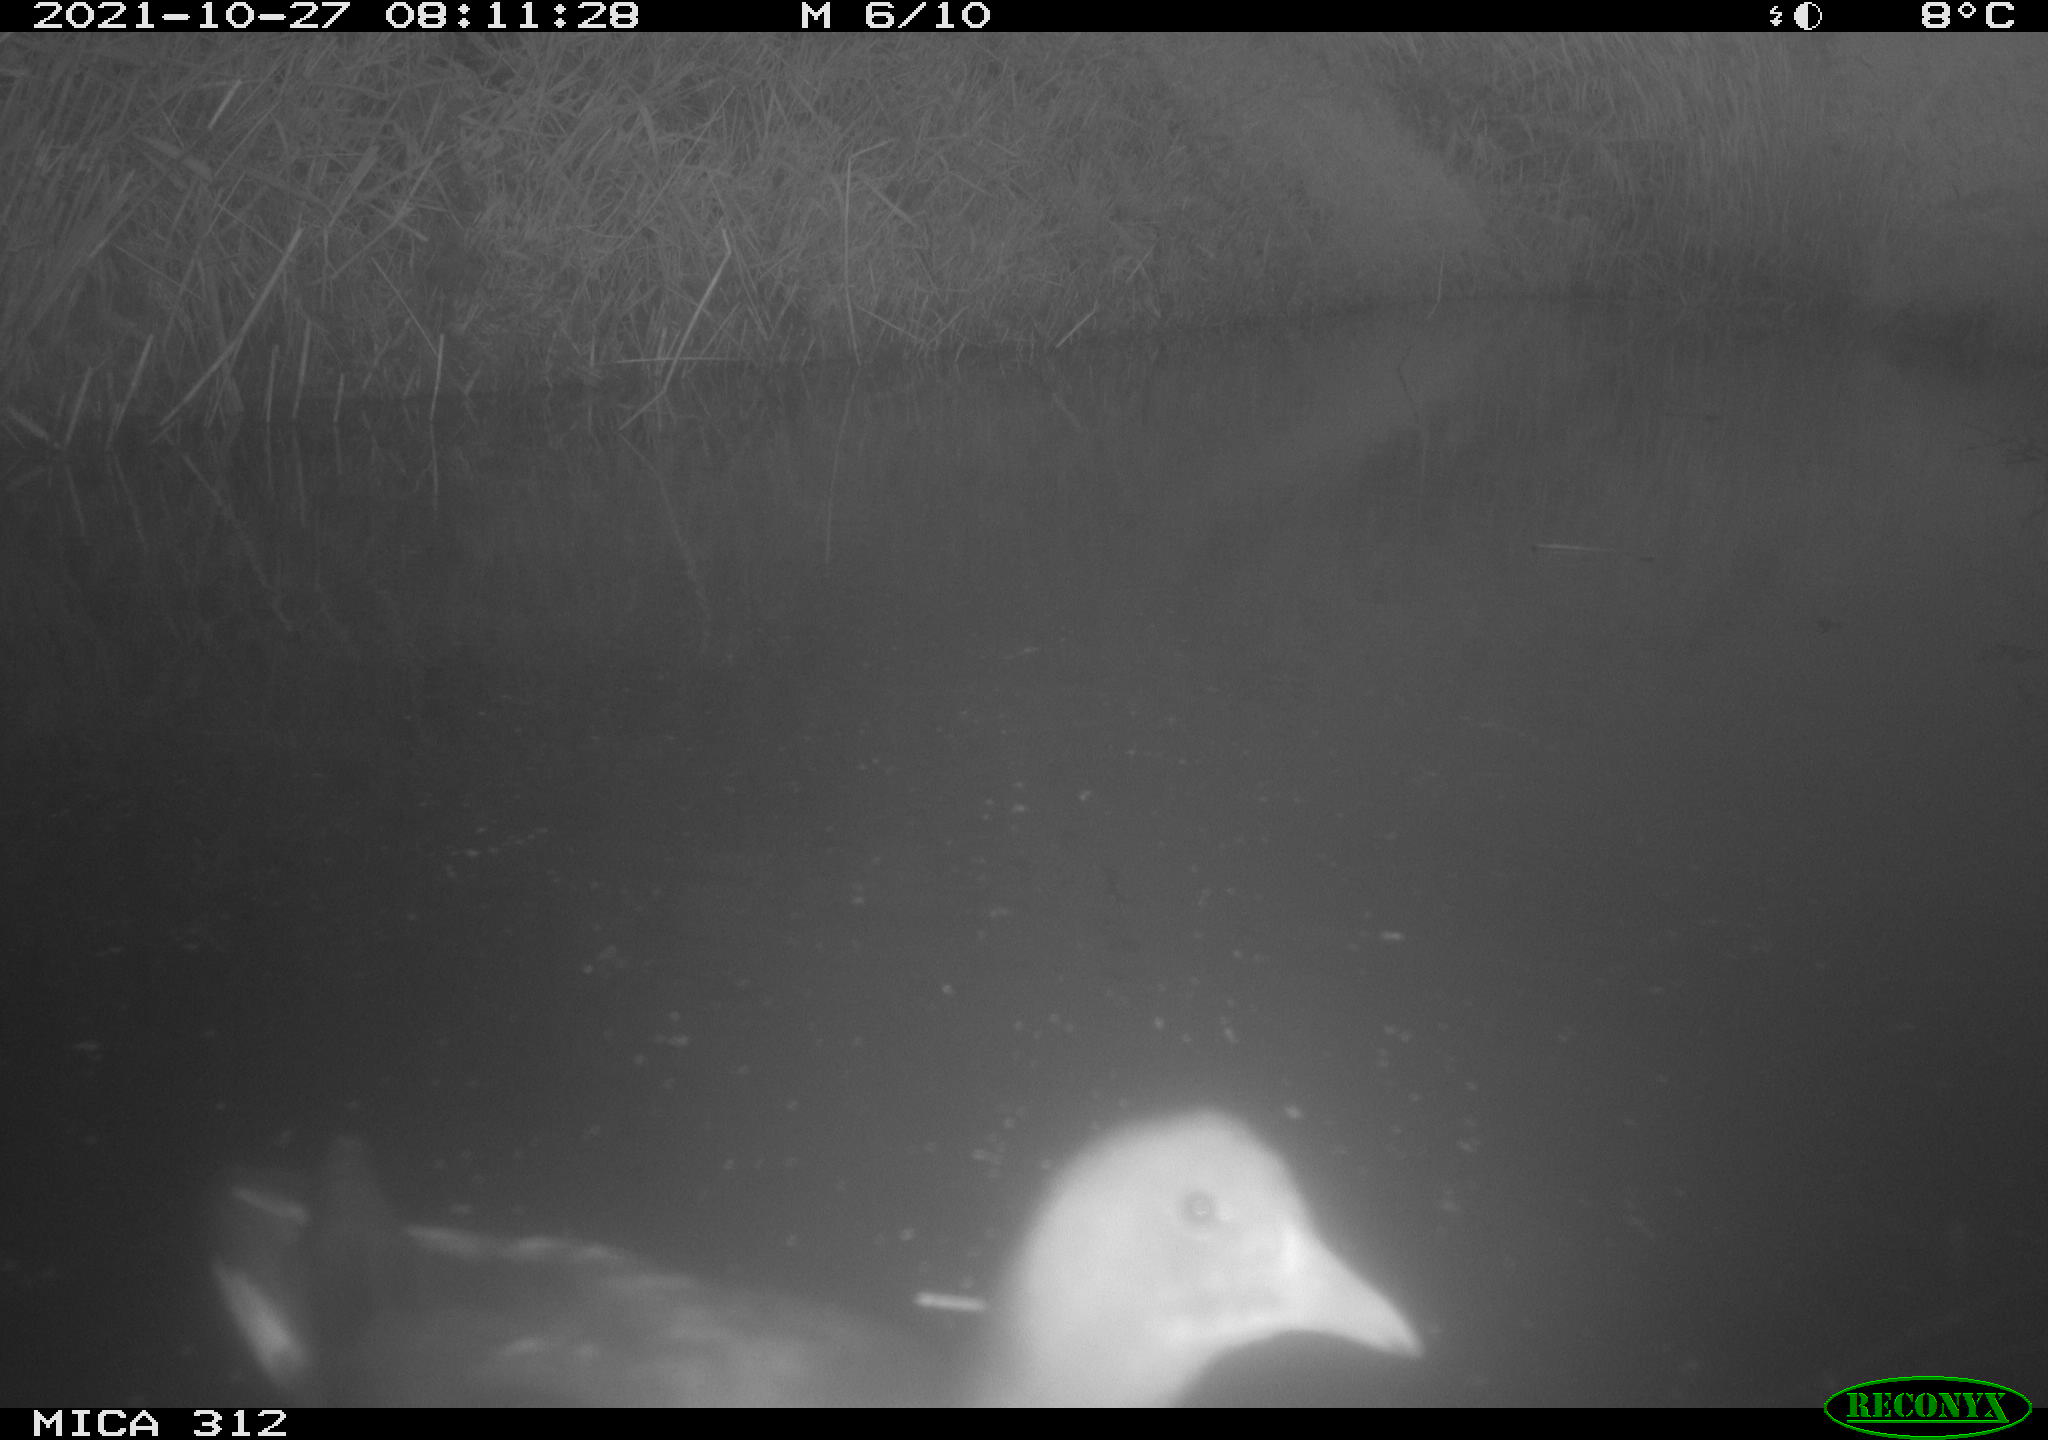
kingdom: Animalia
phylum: Chordata
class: Aves
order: Gruiformes
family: Rallidae
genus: Gallinula
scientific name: Gallinula chloropus
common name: Common moorhen
